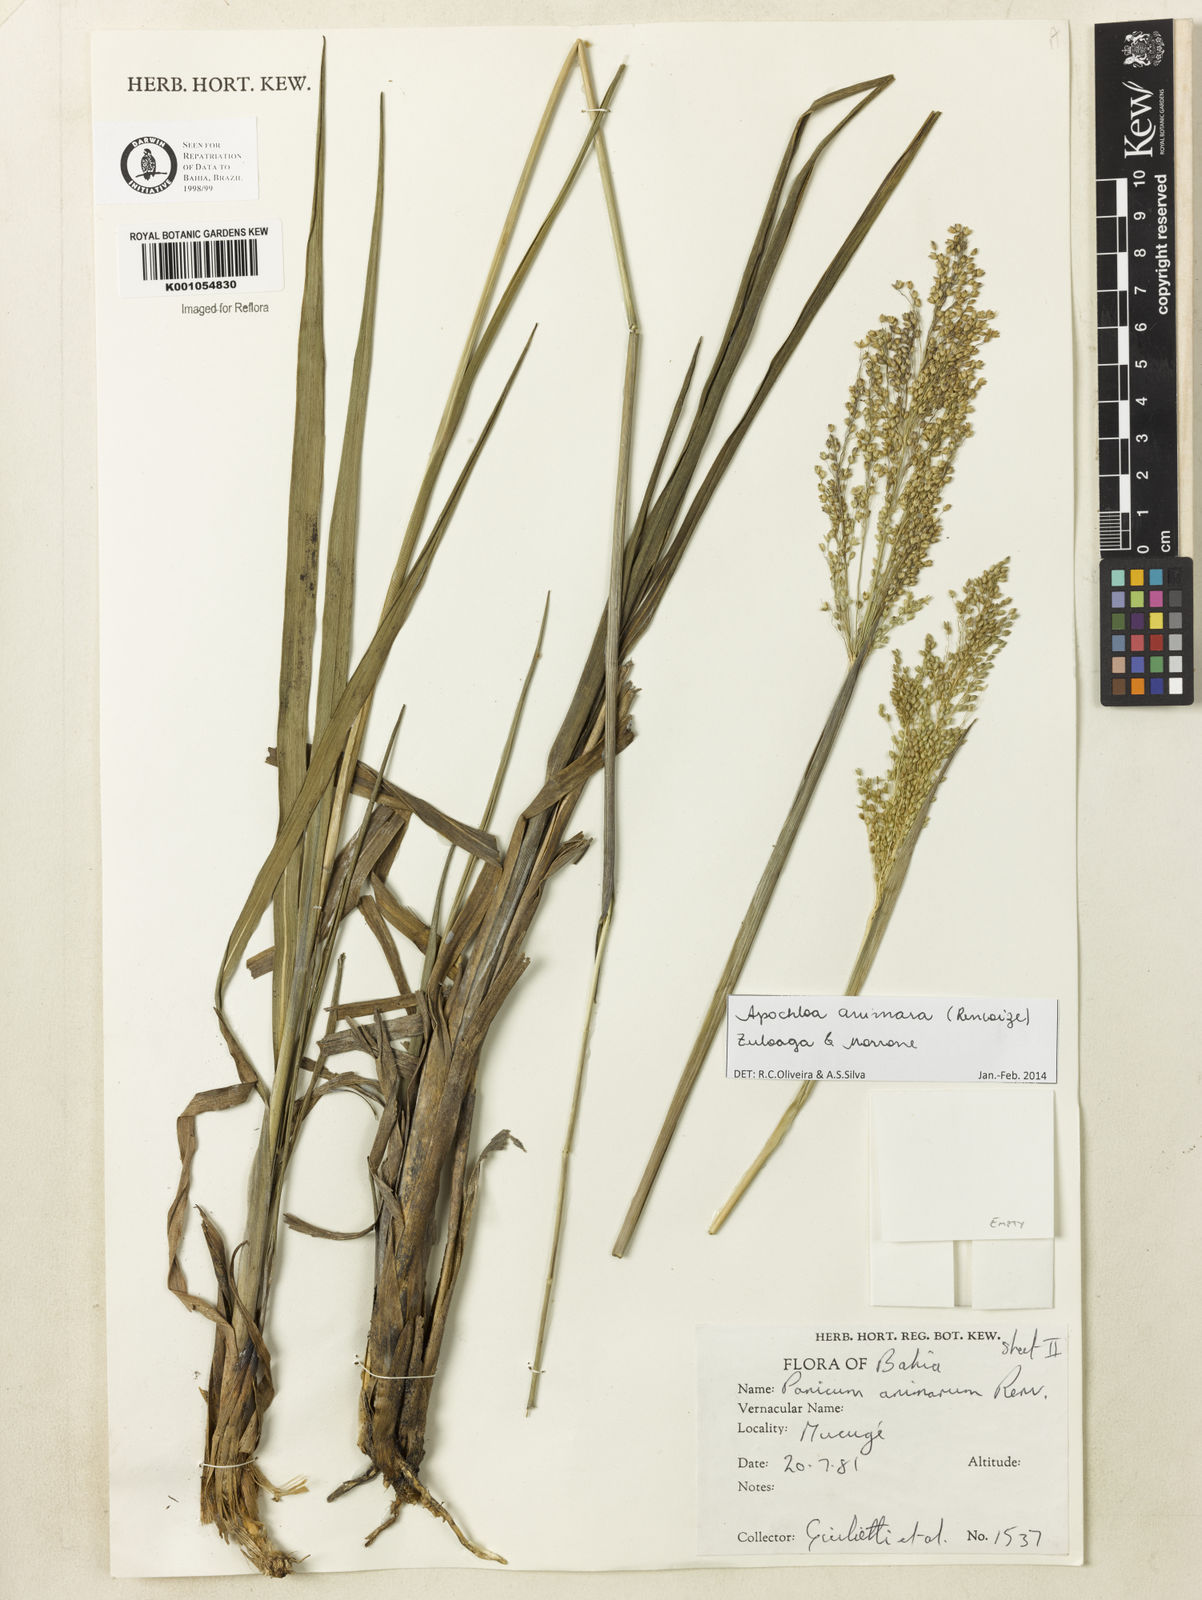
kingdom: Plantae
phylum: Tracheophyta
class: Liliopsida
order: Poales
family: Poaceae
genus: Apochloa
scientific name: Apochloa animara
